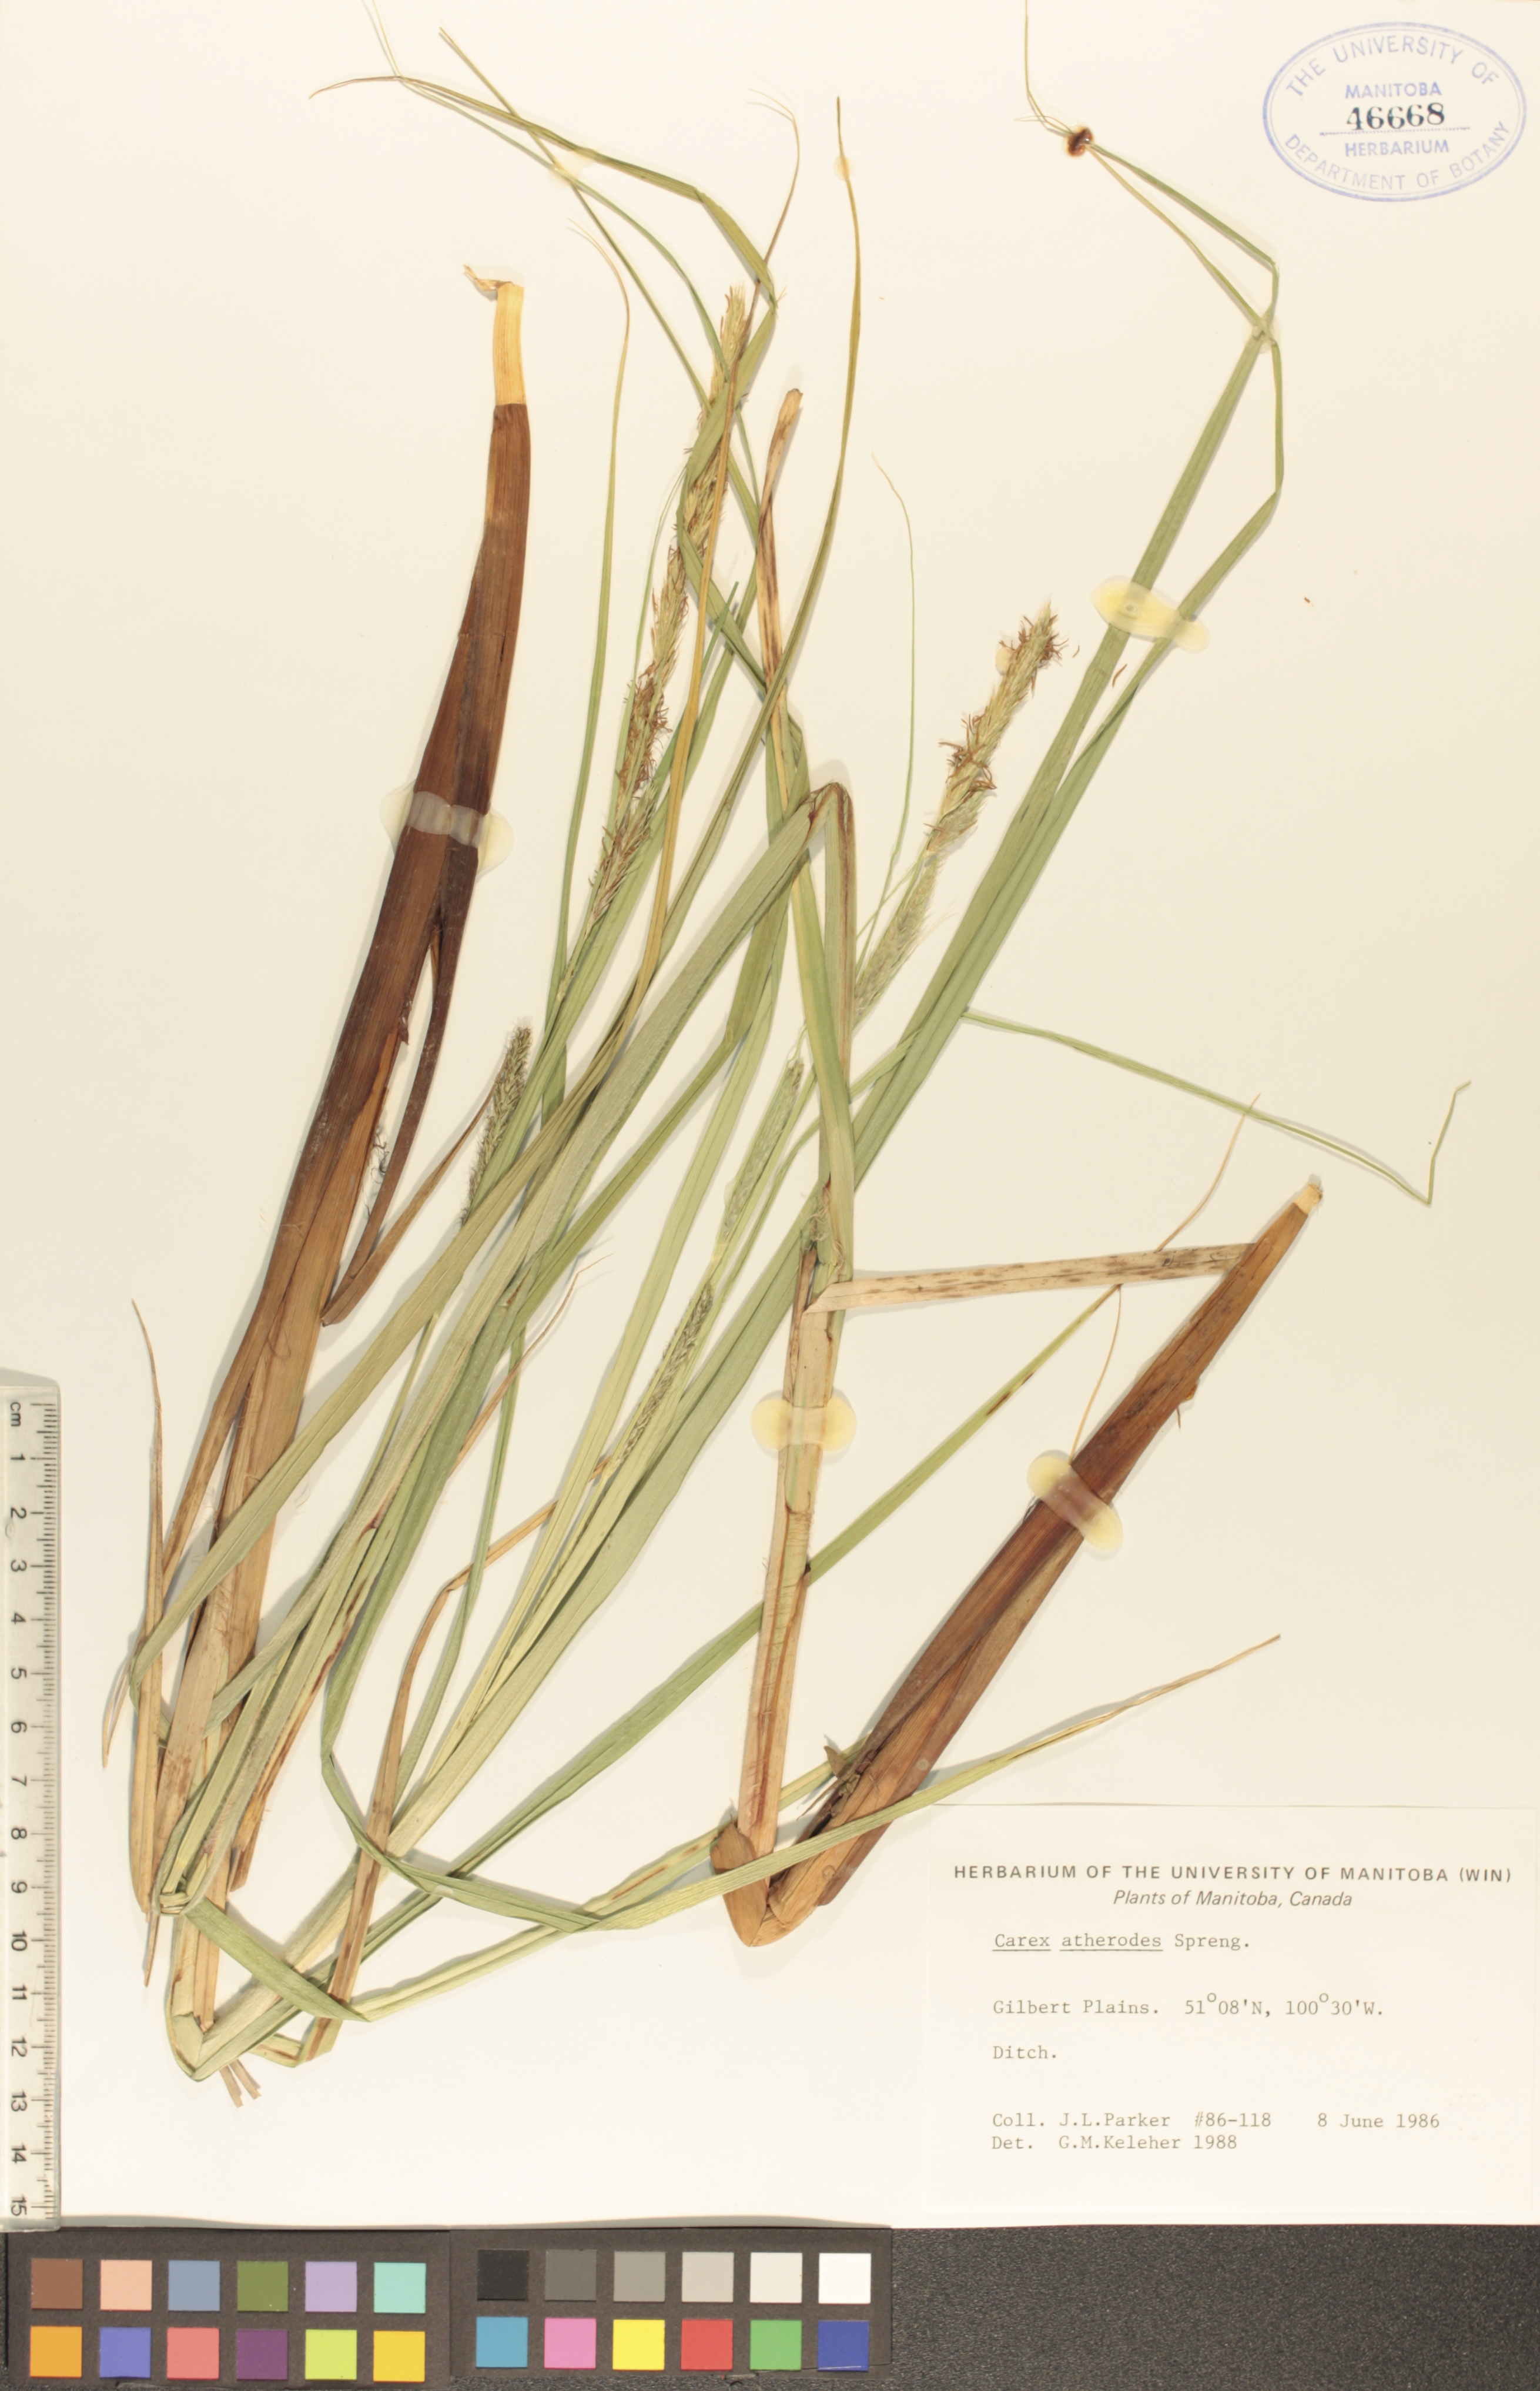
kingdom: Plantae
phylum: Tracheophyta
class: Liliopsida
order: Poales
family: Cyperaceae
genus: Carex
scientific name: Carex atherodes
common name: Wheat sedge
